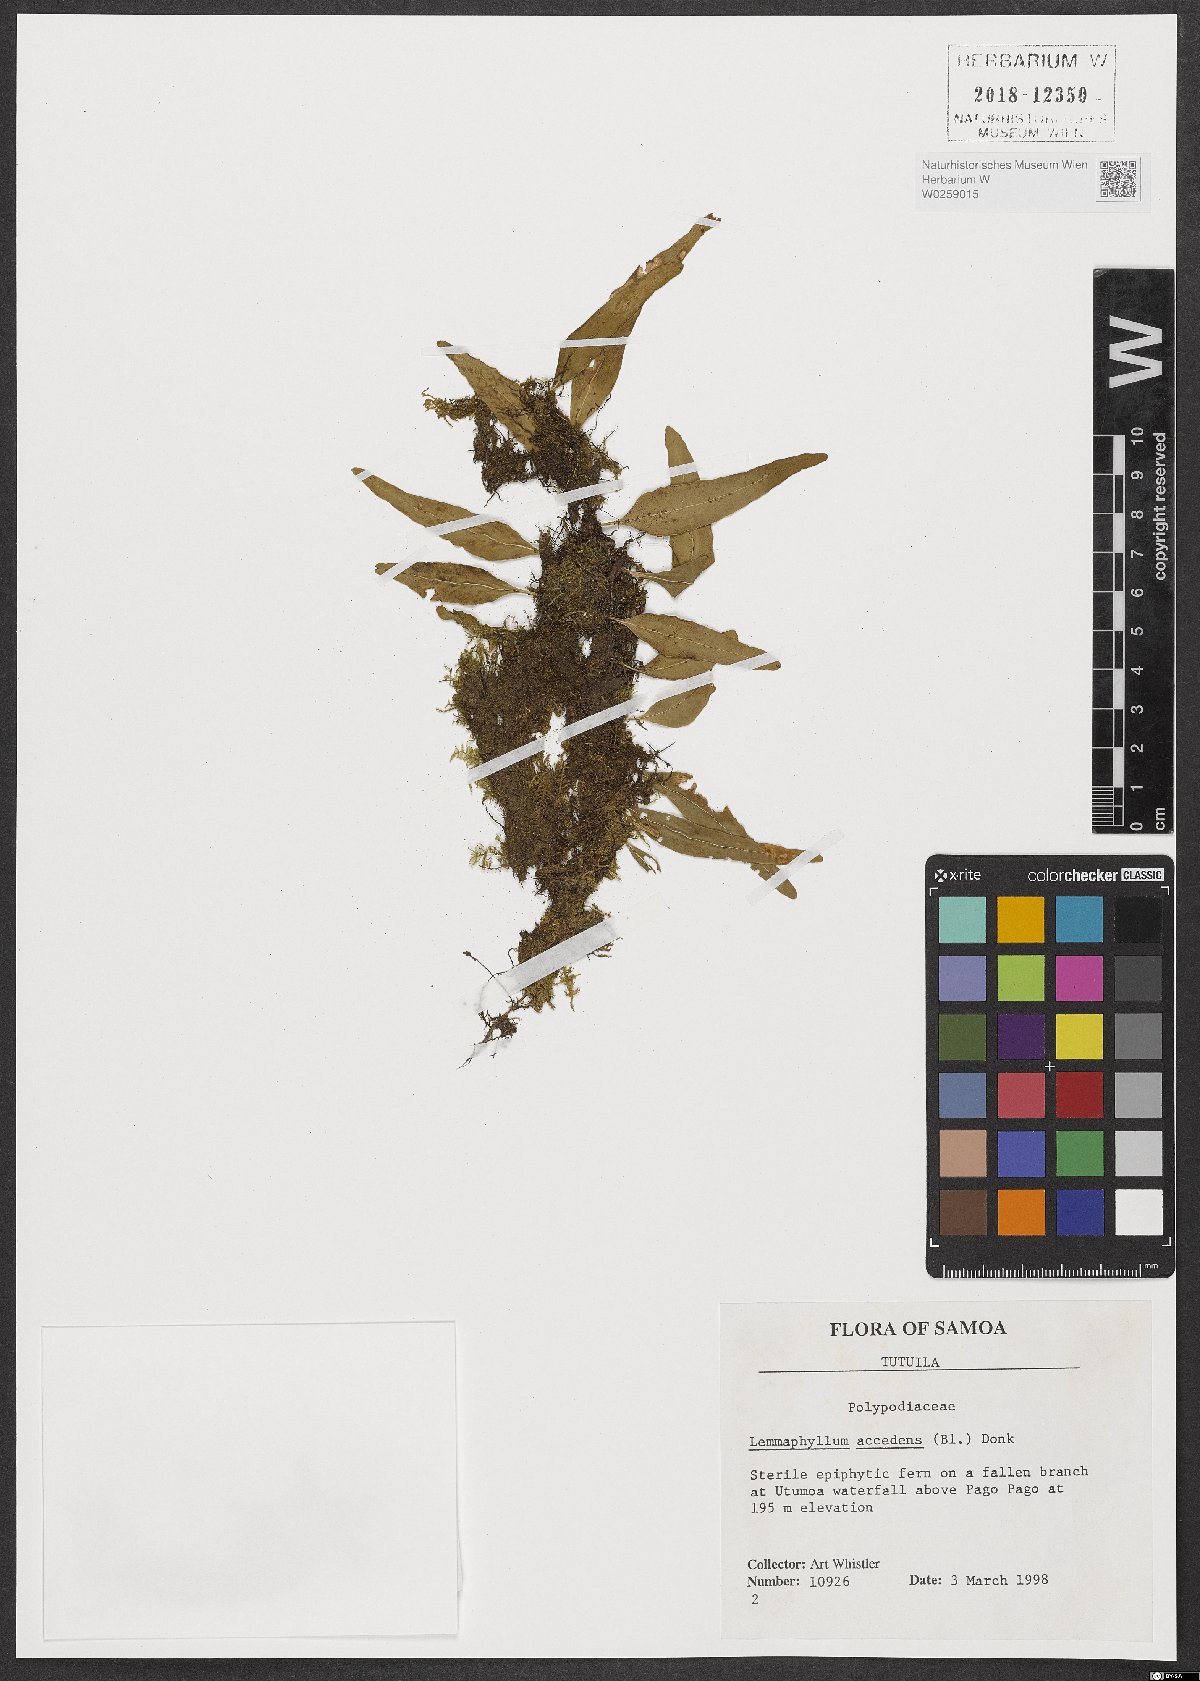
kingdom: Plantae
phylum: Tracheophyta
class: Polypodiopsida
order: Polypodiales
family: Polypodiaceae
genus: Lepisorus
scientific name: Lepisorus accedens
